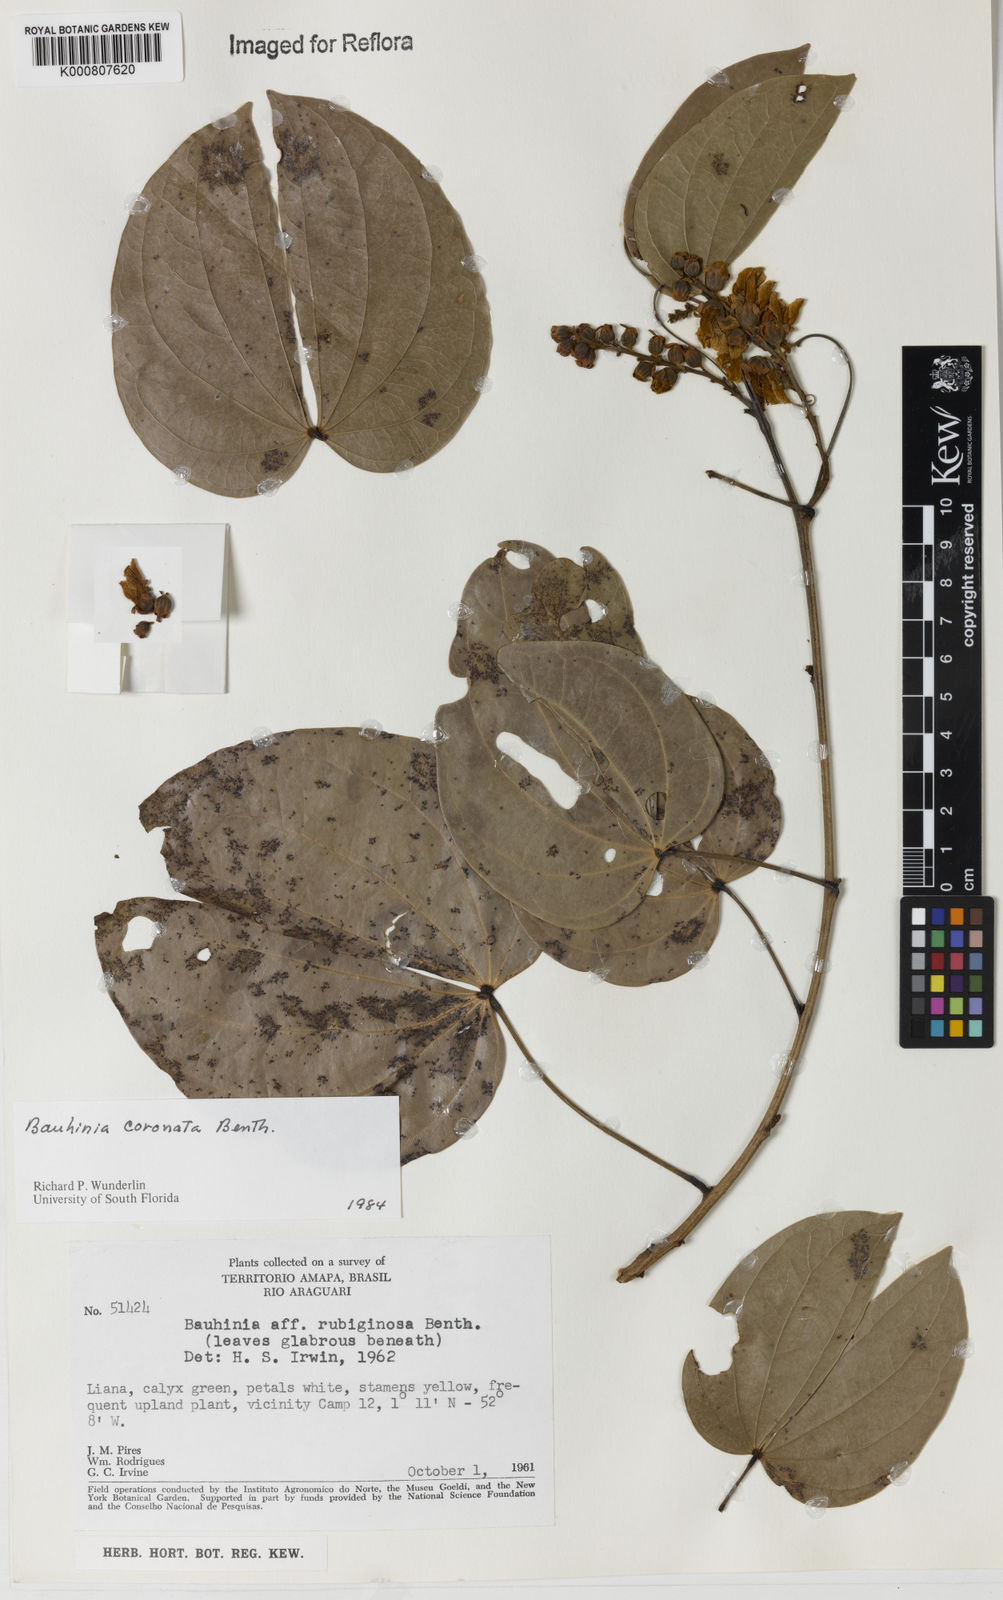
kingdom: Plantae
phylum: Tracheophyta
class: Magnoliopsida
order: Fabales
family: Fabaceae
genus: Schnella
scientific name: Schnella outimouta
